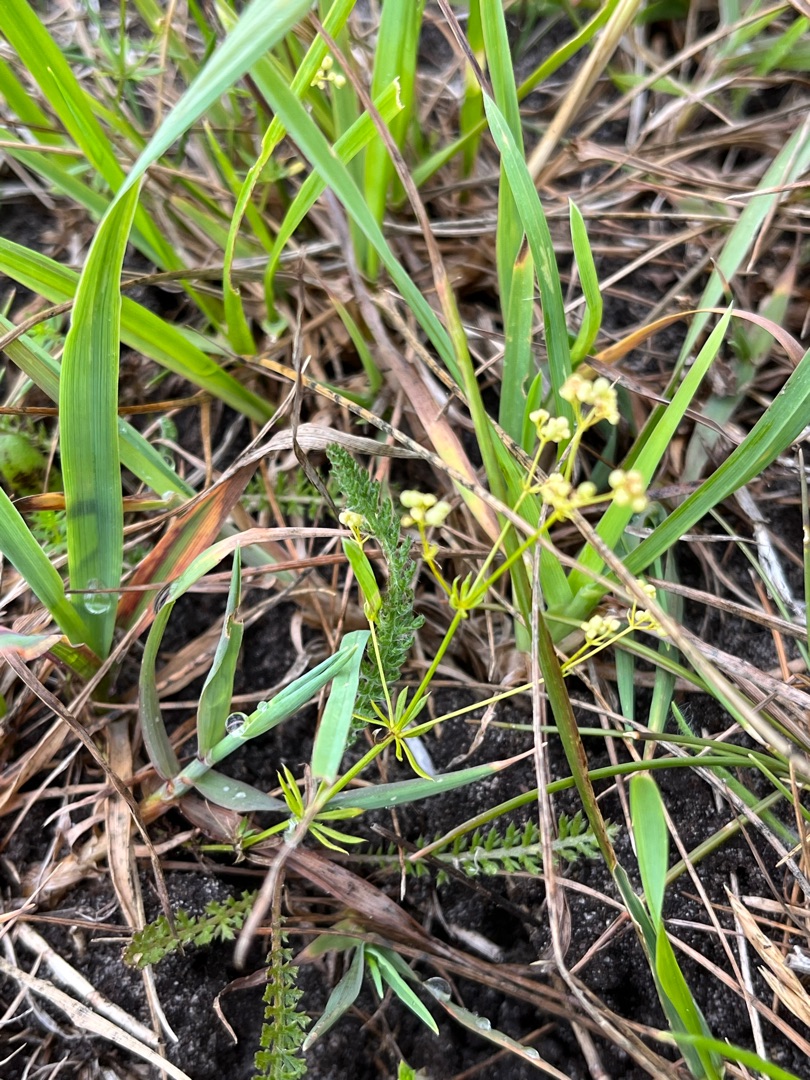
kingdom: Plantae
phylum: Tracheophyta
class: Magnoliopsida
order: Gentianales
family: Rubiaceae
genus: Galium
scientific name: Galium sterneri
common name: Liden snerre
